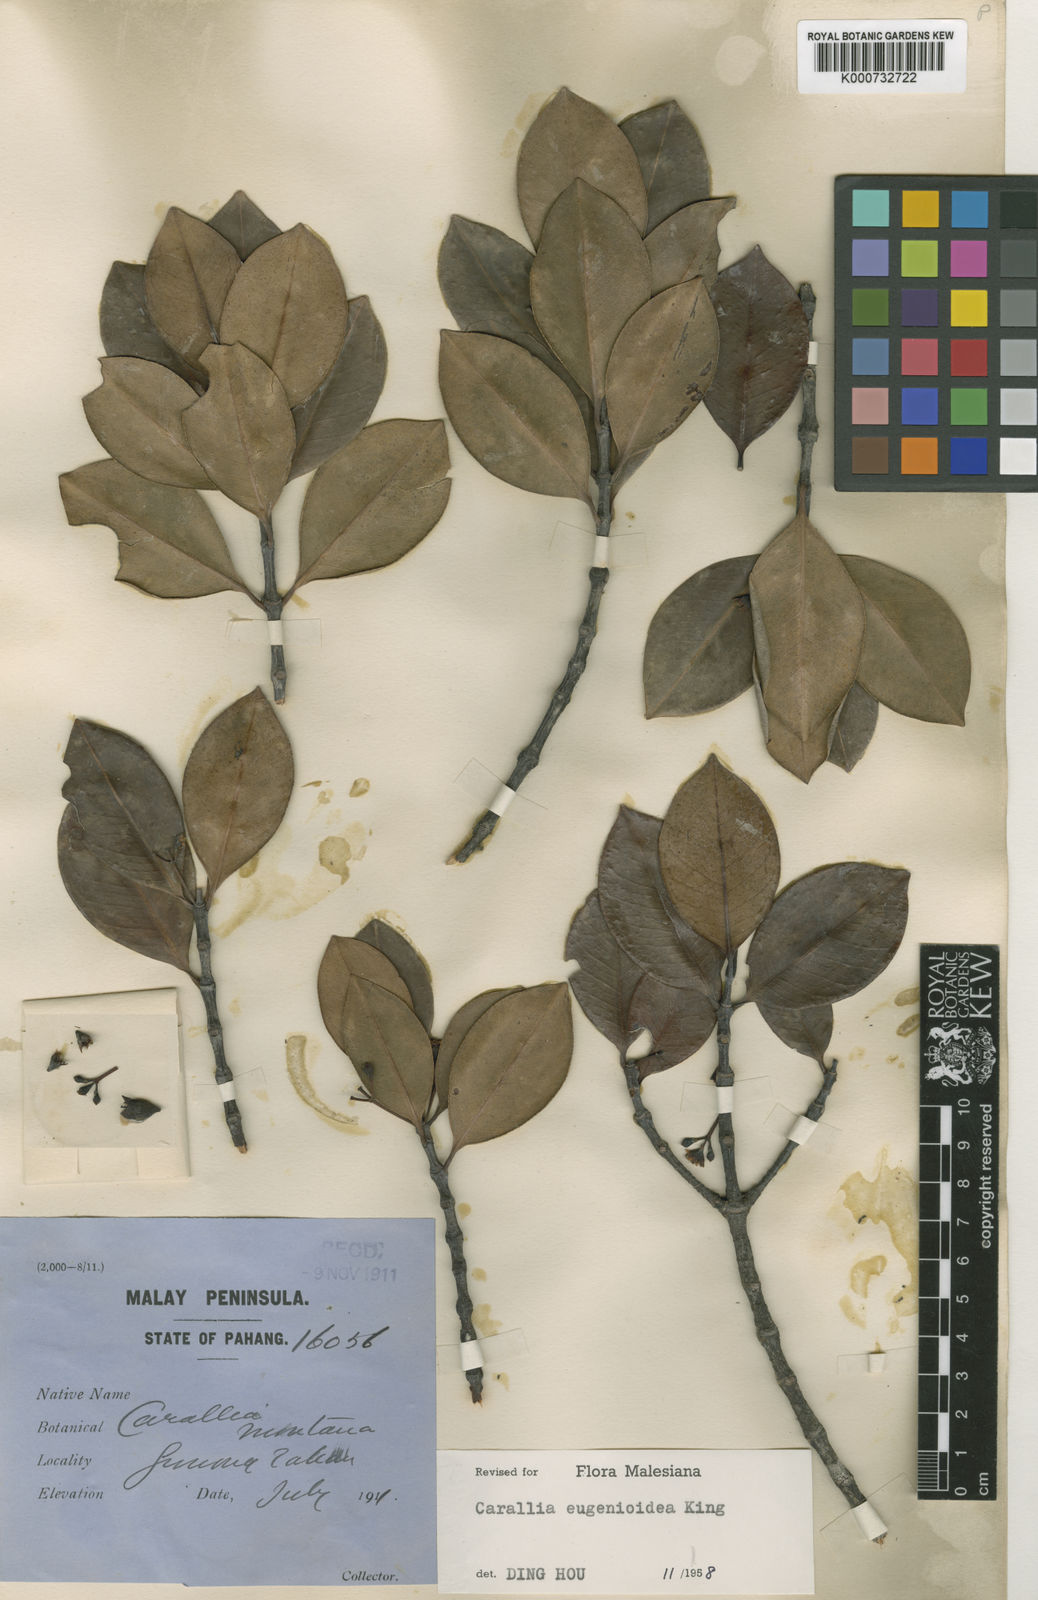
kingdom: Plantae
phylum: Tracheophyta
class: Magnoliopsida
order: Malpighiales
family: Rhizophoraceae
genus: Carallia
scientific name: Carallia
